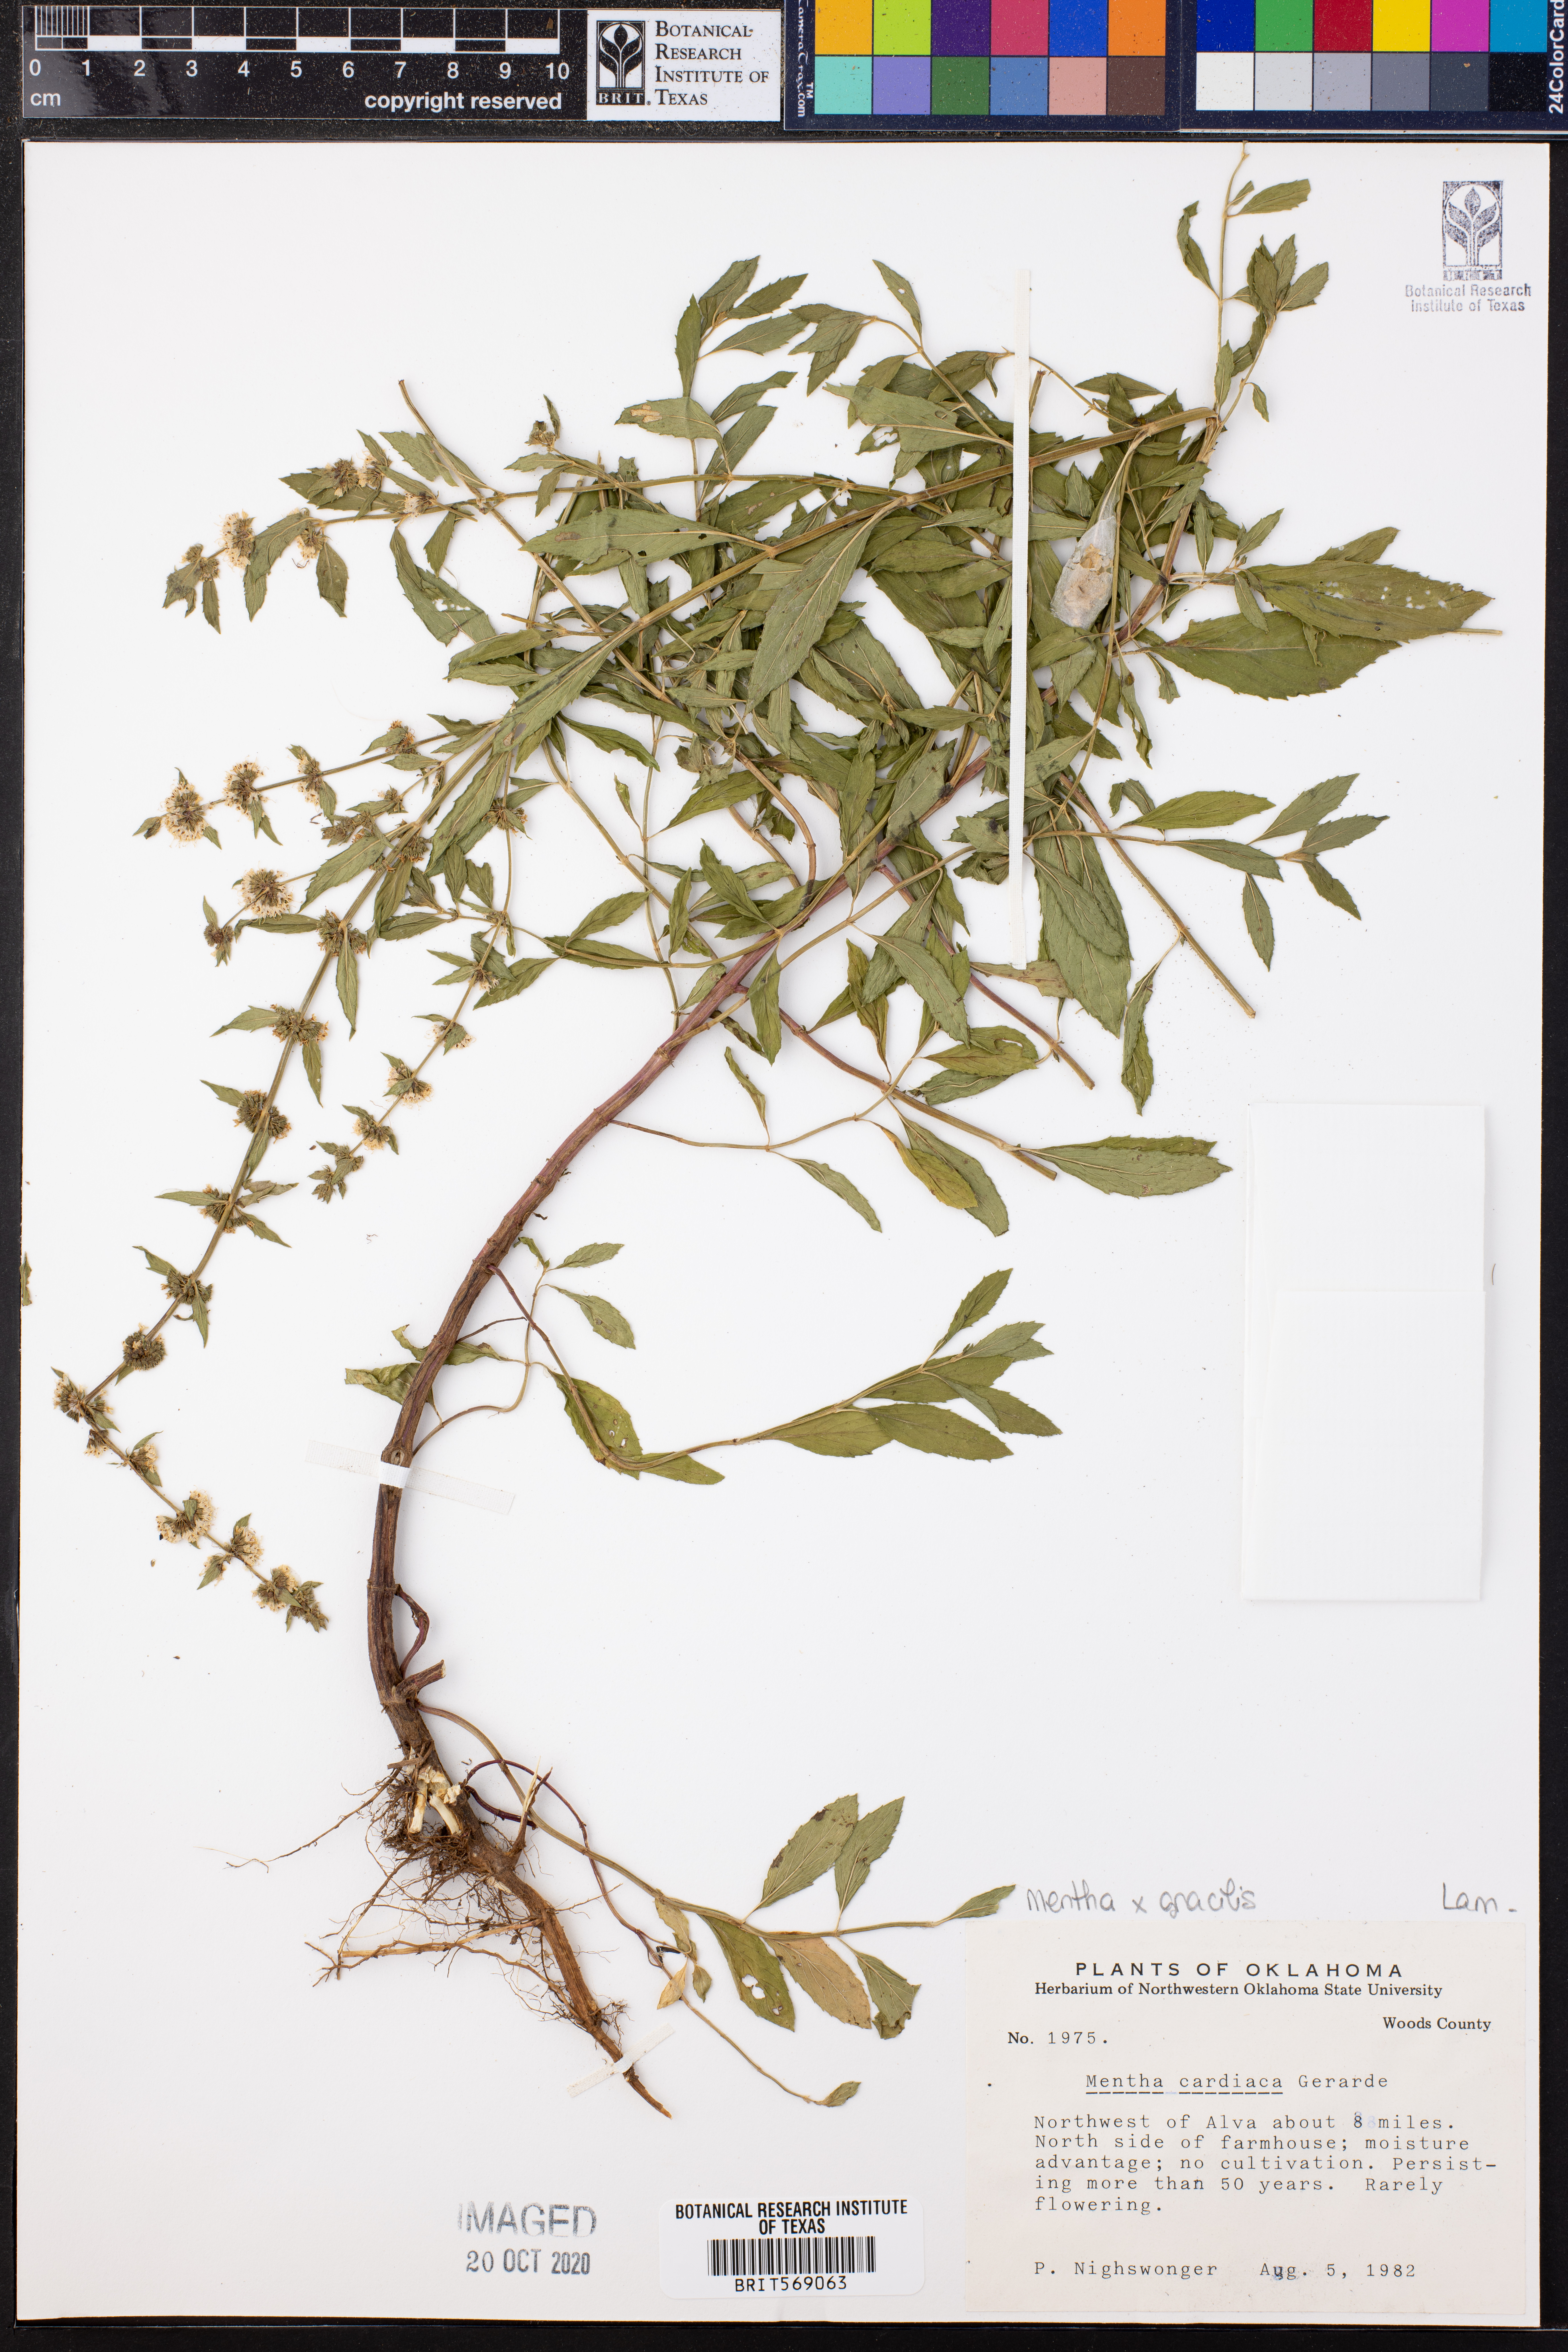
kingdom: Plantae
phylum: Tracheophyta
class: Magnoliopsida
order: Lamiales
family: Lamiaceae
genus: Mentha
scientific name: Mentha gracilis
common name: Bushy mint
